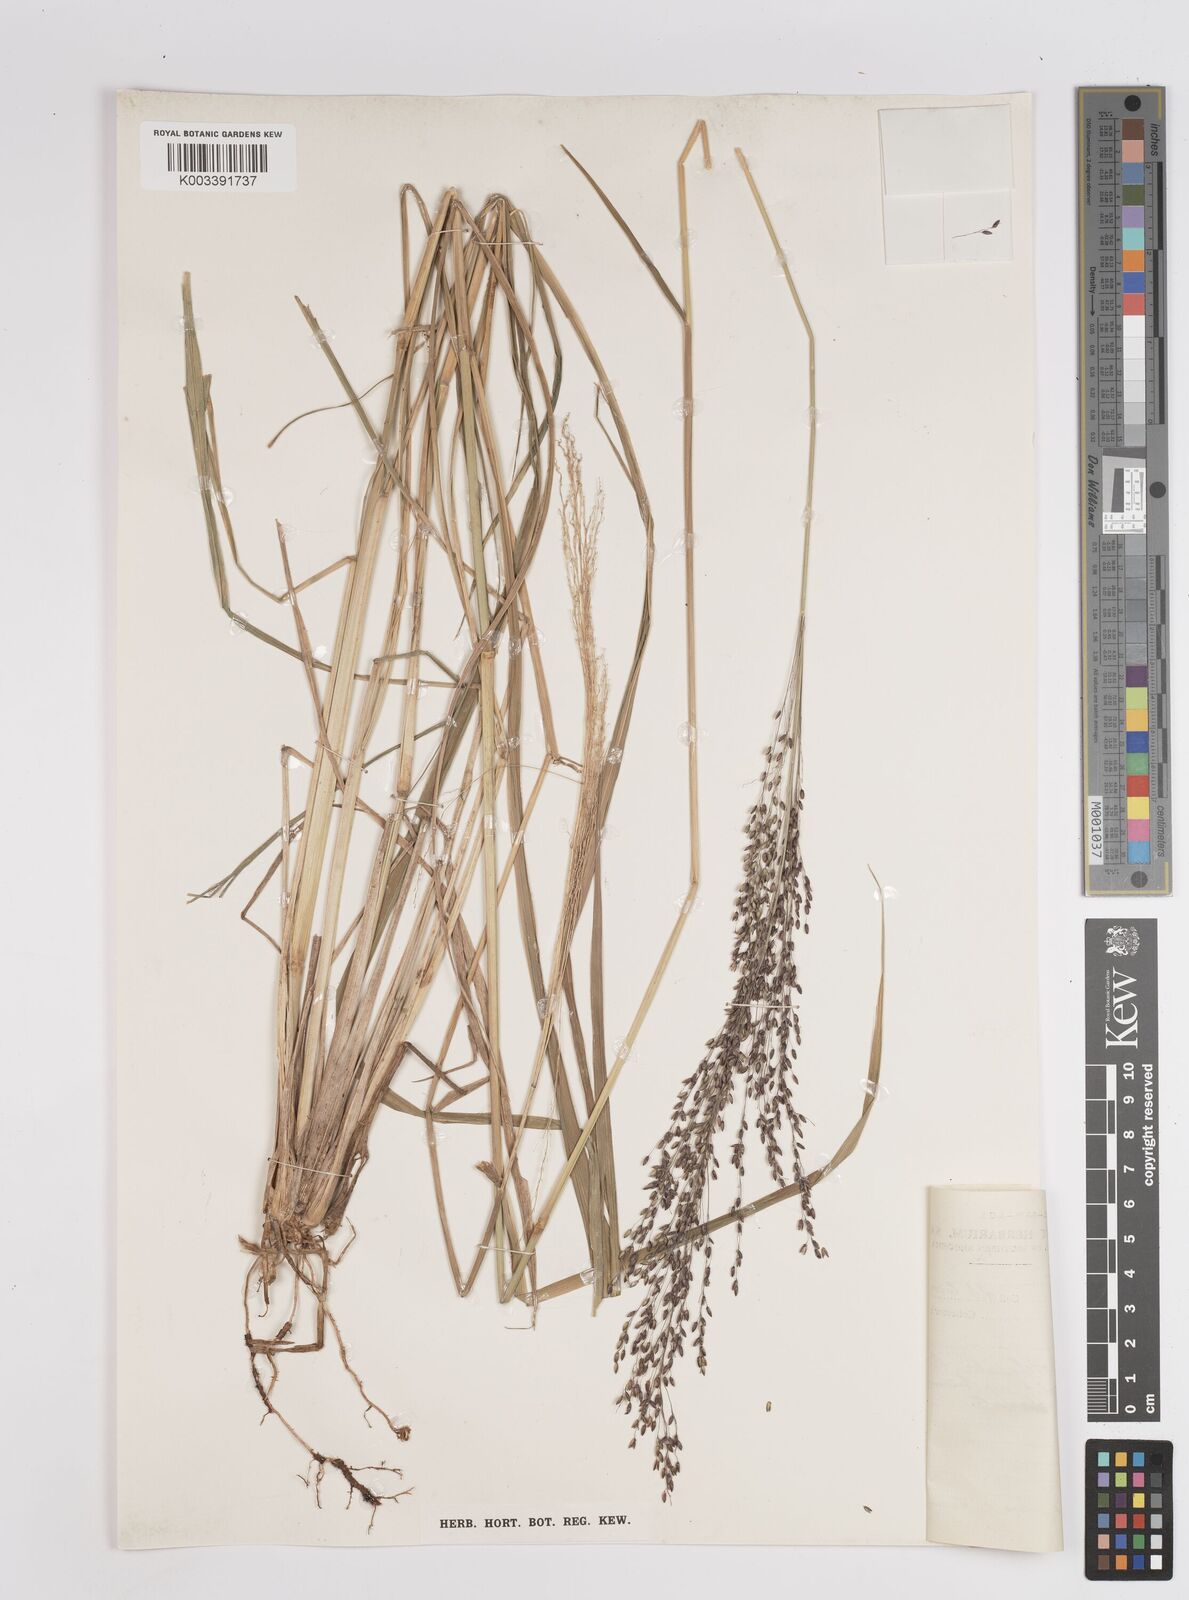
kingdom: Plantae
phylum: Tracheophyta
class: Liliopsida
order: Poales
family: Poaceae
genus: Megathyrsus
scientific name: Megathyrsus maximus
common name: Guineagrass
